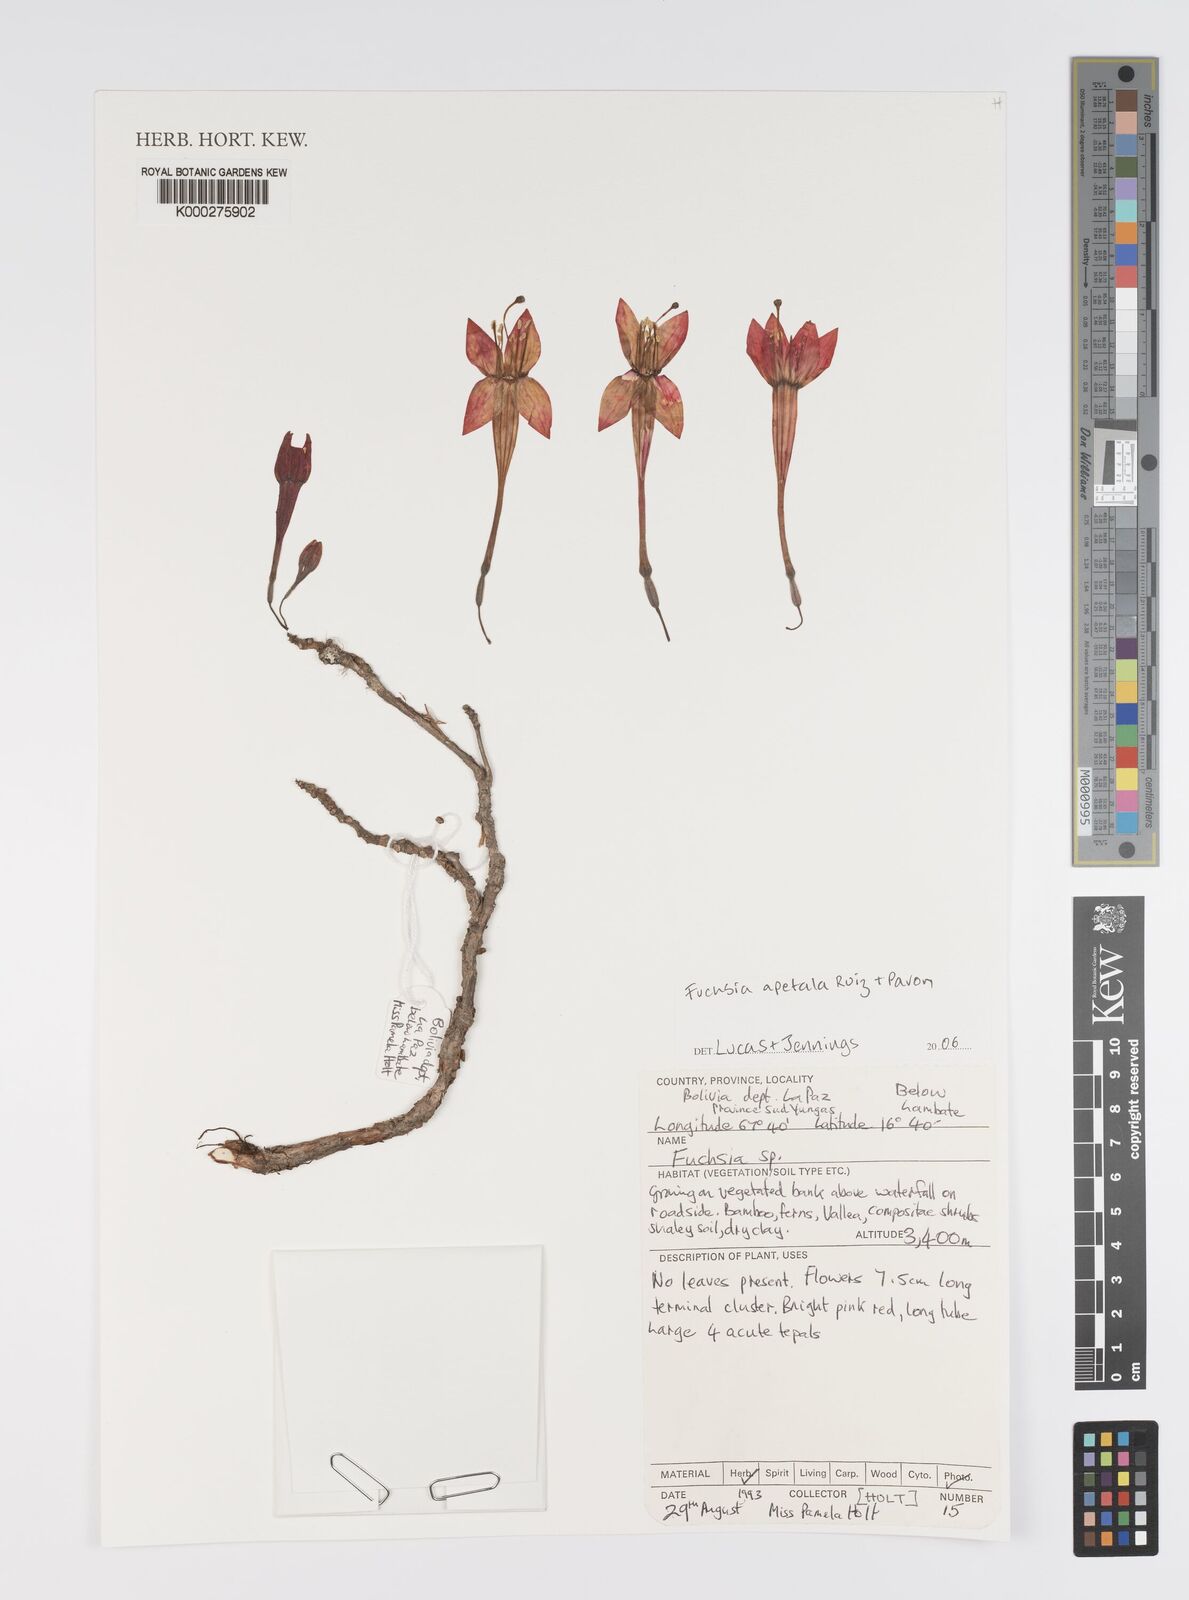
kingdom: Plantae
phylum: Tracheophyta
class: Magnoliopsida
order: Myrtales
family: Onagraceae
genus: Fuchsia
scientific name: Fuchsia apetala
